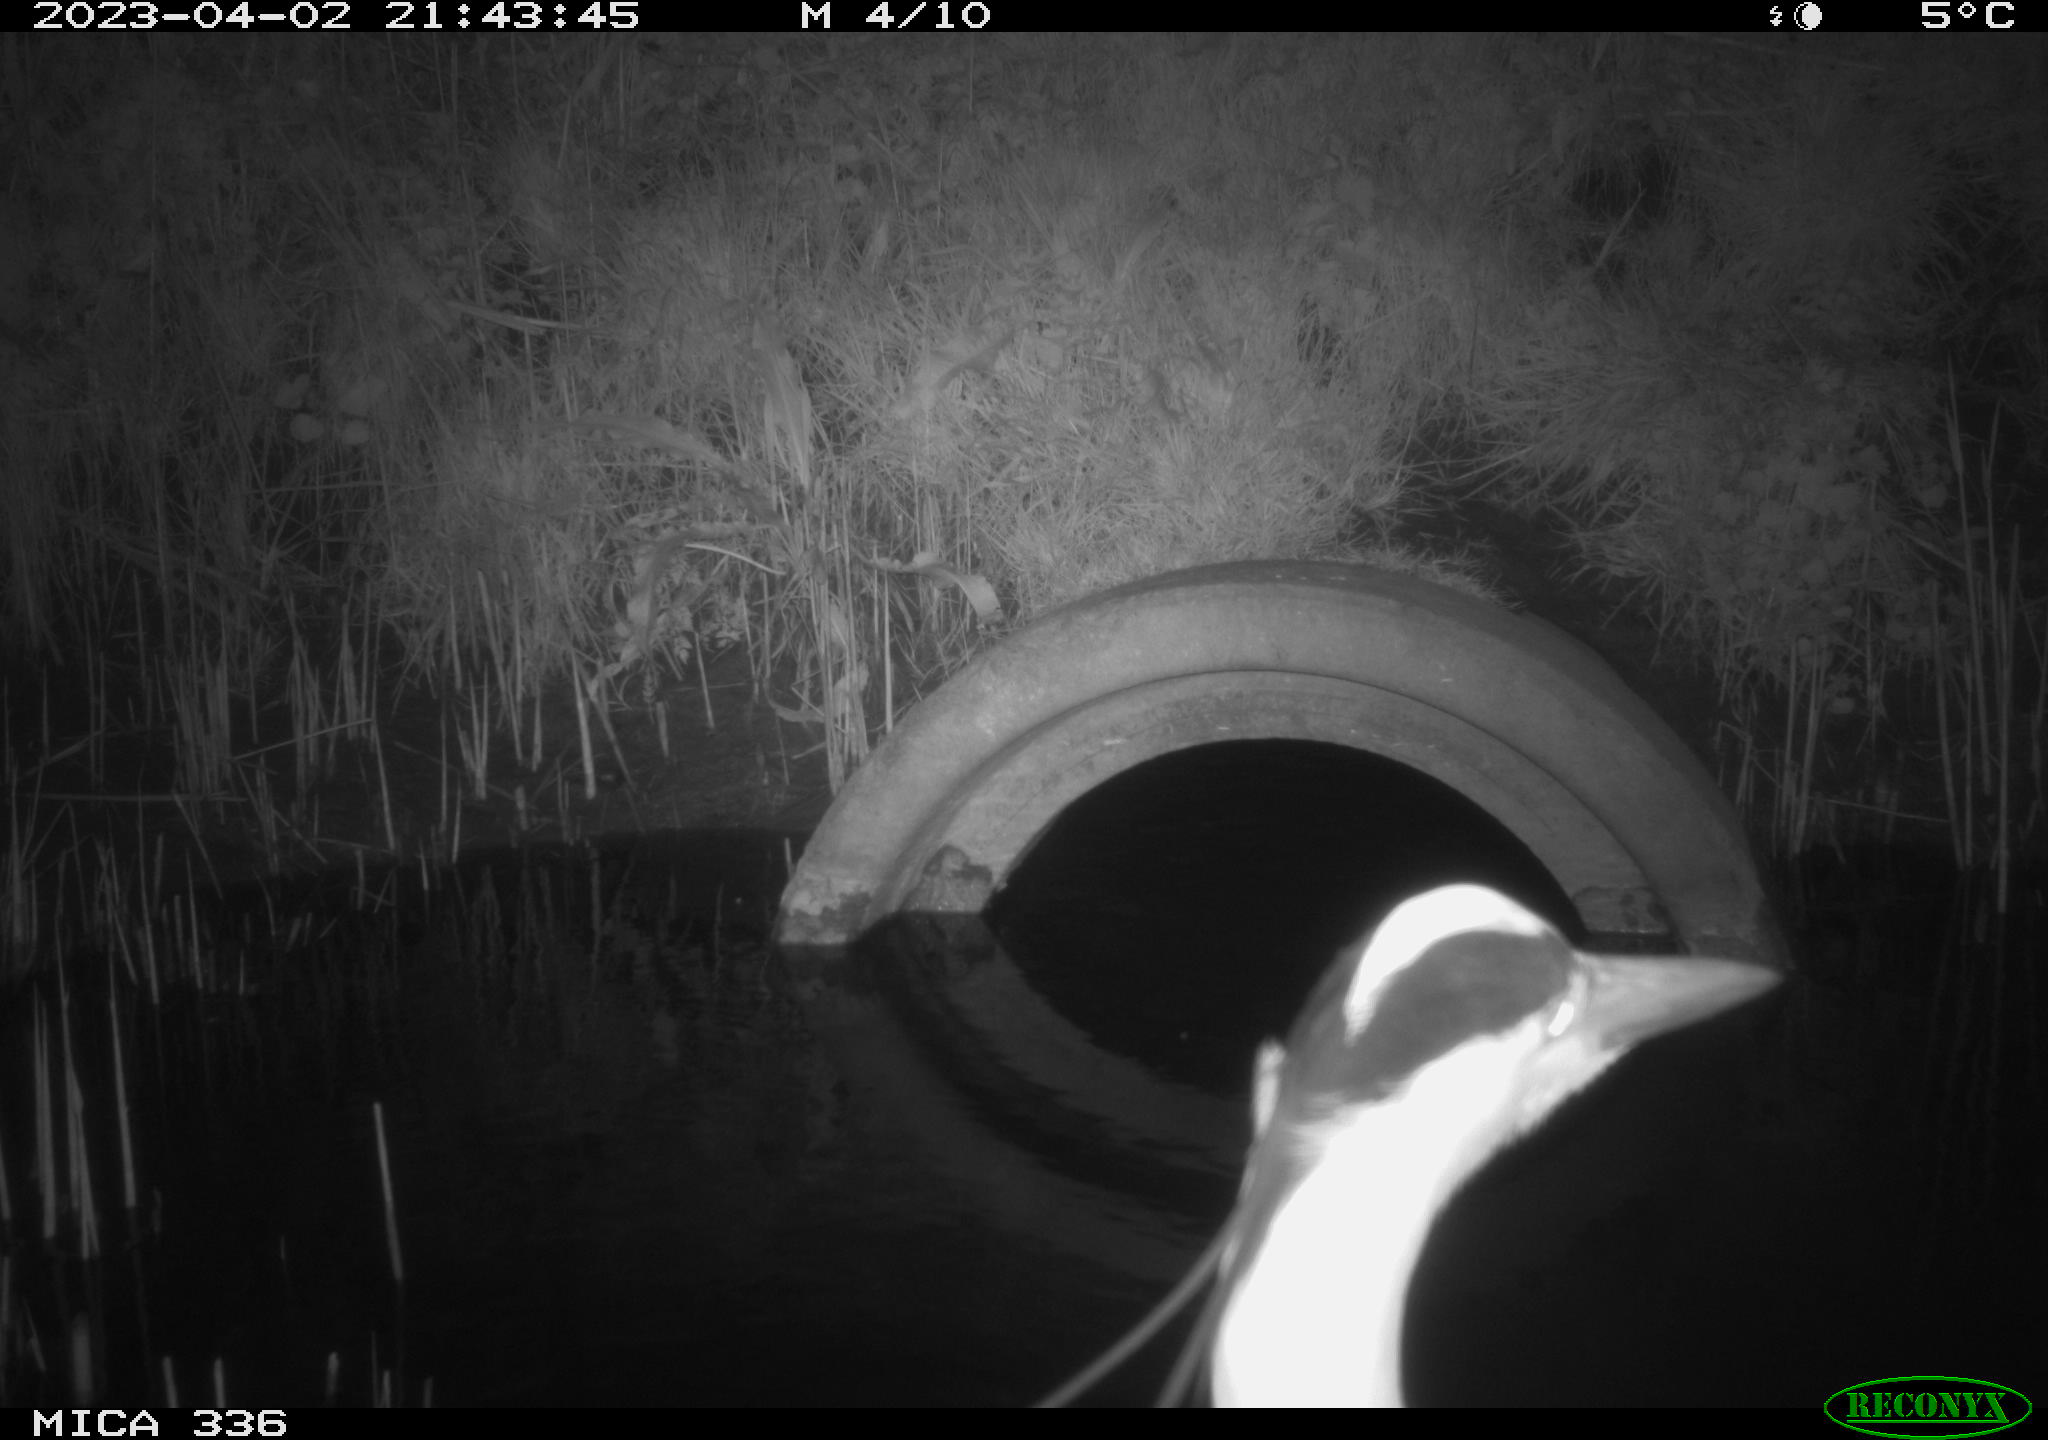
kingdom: Animalia
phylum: Chordata
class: Aves
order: Pelecaniformes
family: Ardeidae
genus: Ardea
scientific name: Ardea cinerea
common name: Grey heron
